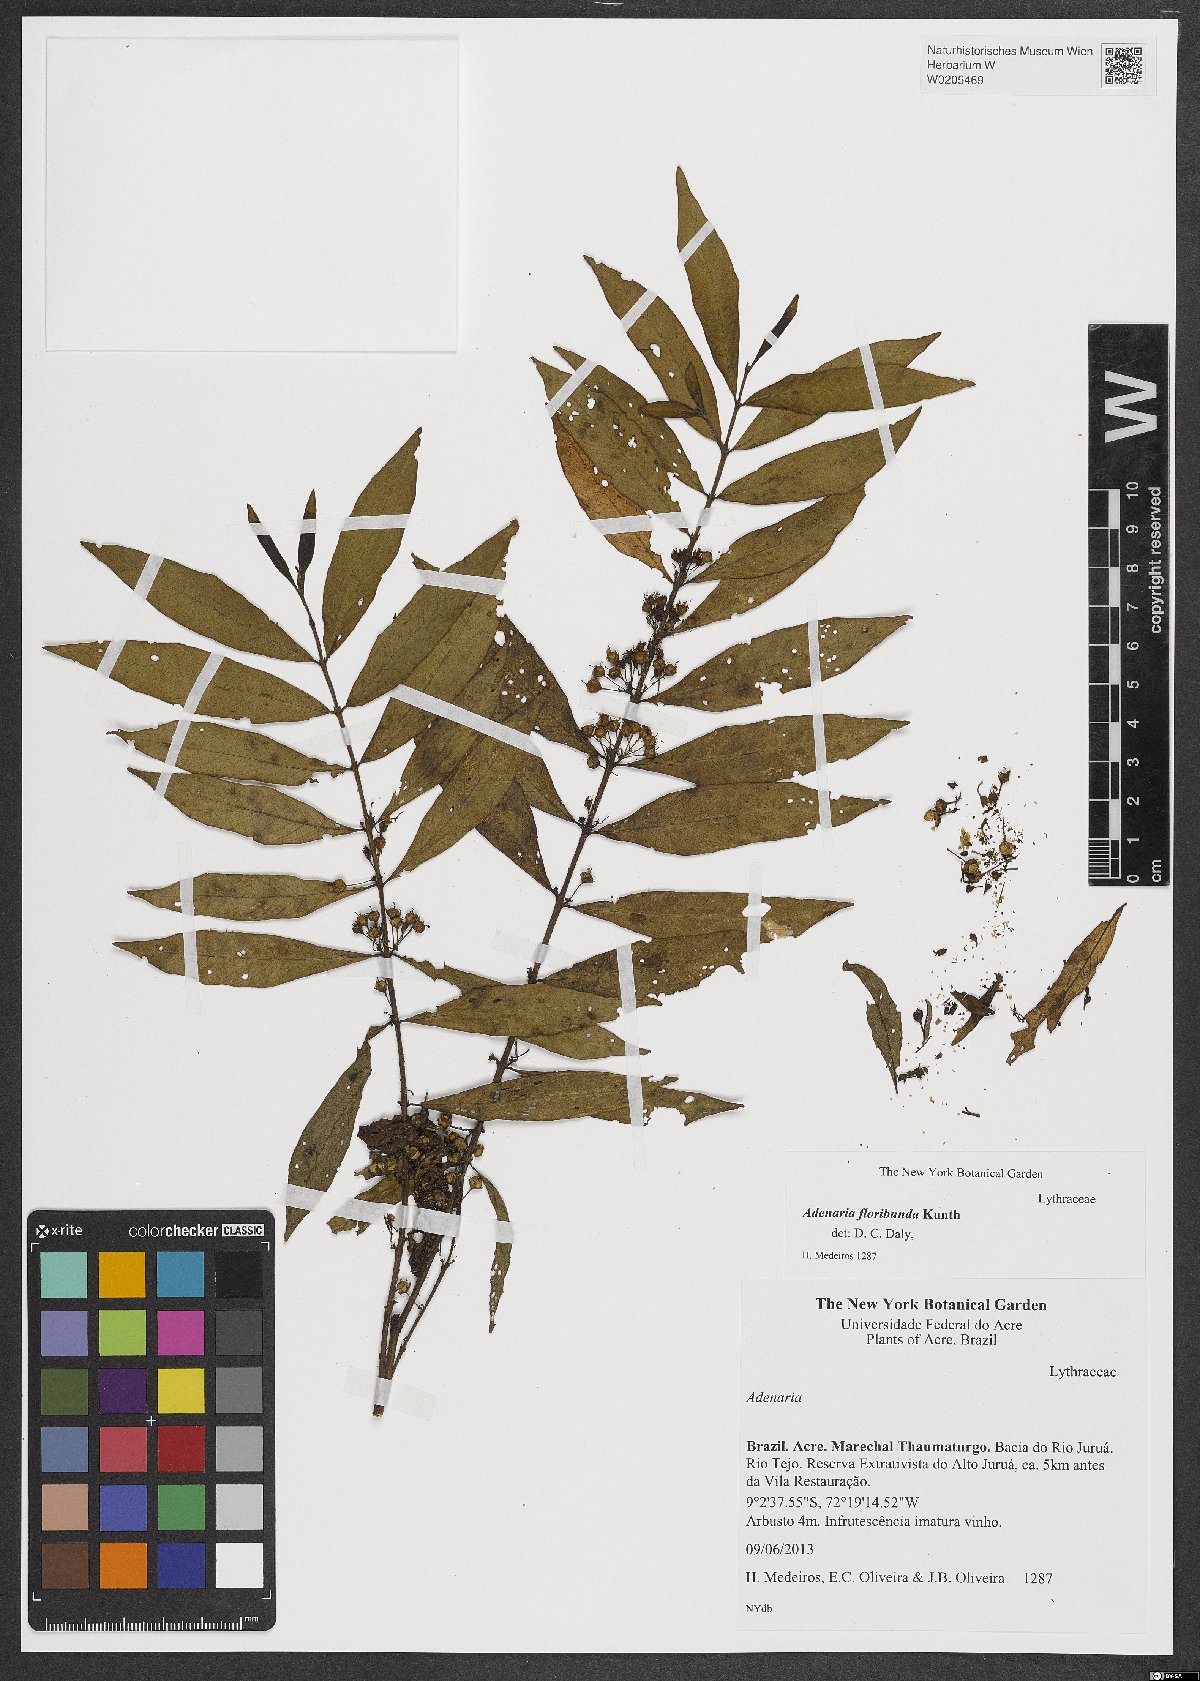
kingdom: Plantae
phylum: Tracheophyta
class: Magnoliopsida
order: Myrtales
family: Lythraceae
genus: Adenaria
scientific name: Adenaria floribunda
